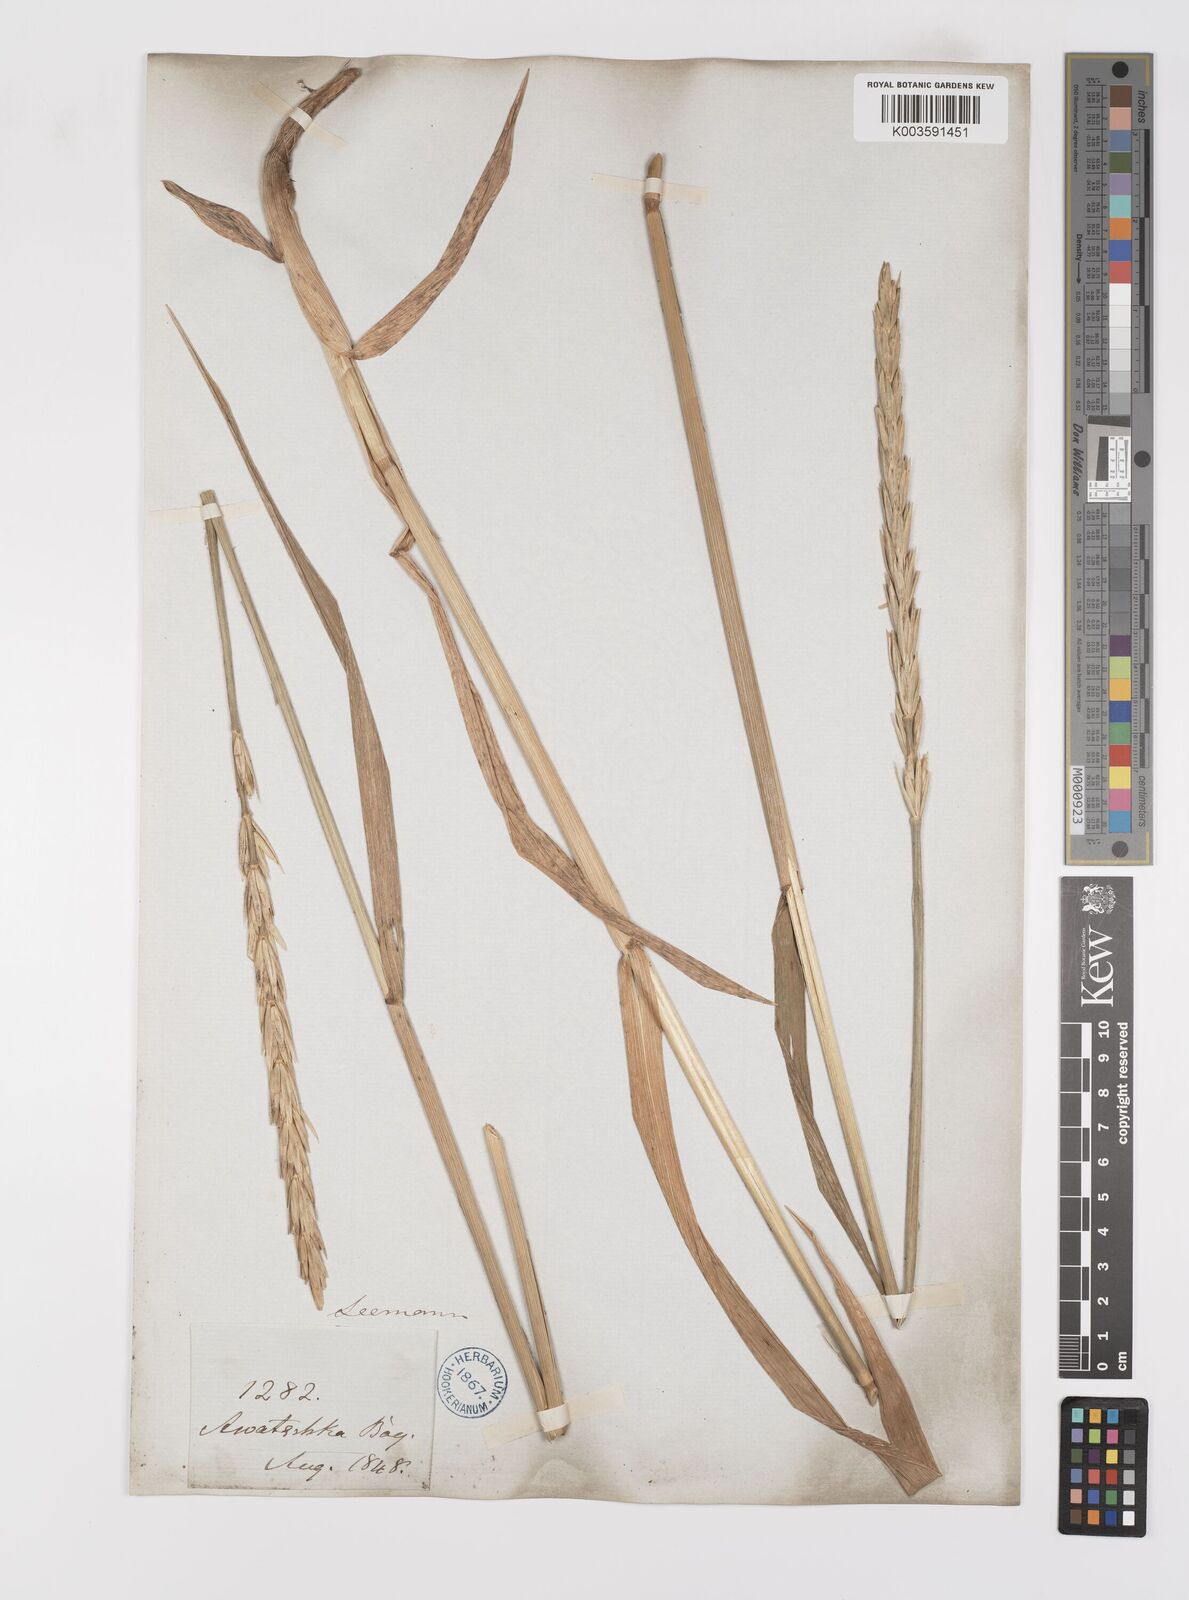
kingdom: Plantae
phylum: Tracheophyta
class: Liliopsida
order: Poales
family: Poaceae
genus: Leymus
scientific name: Leymus mollis
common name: American dune grass
